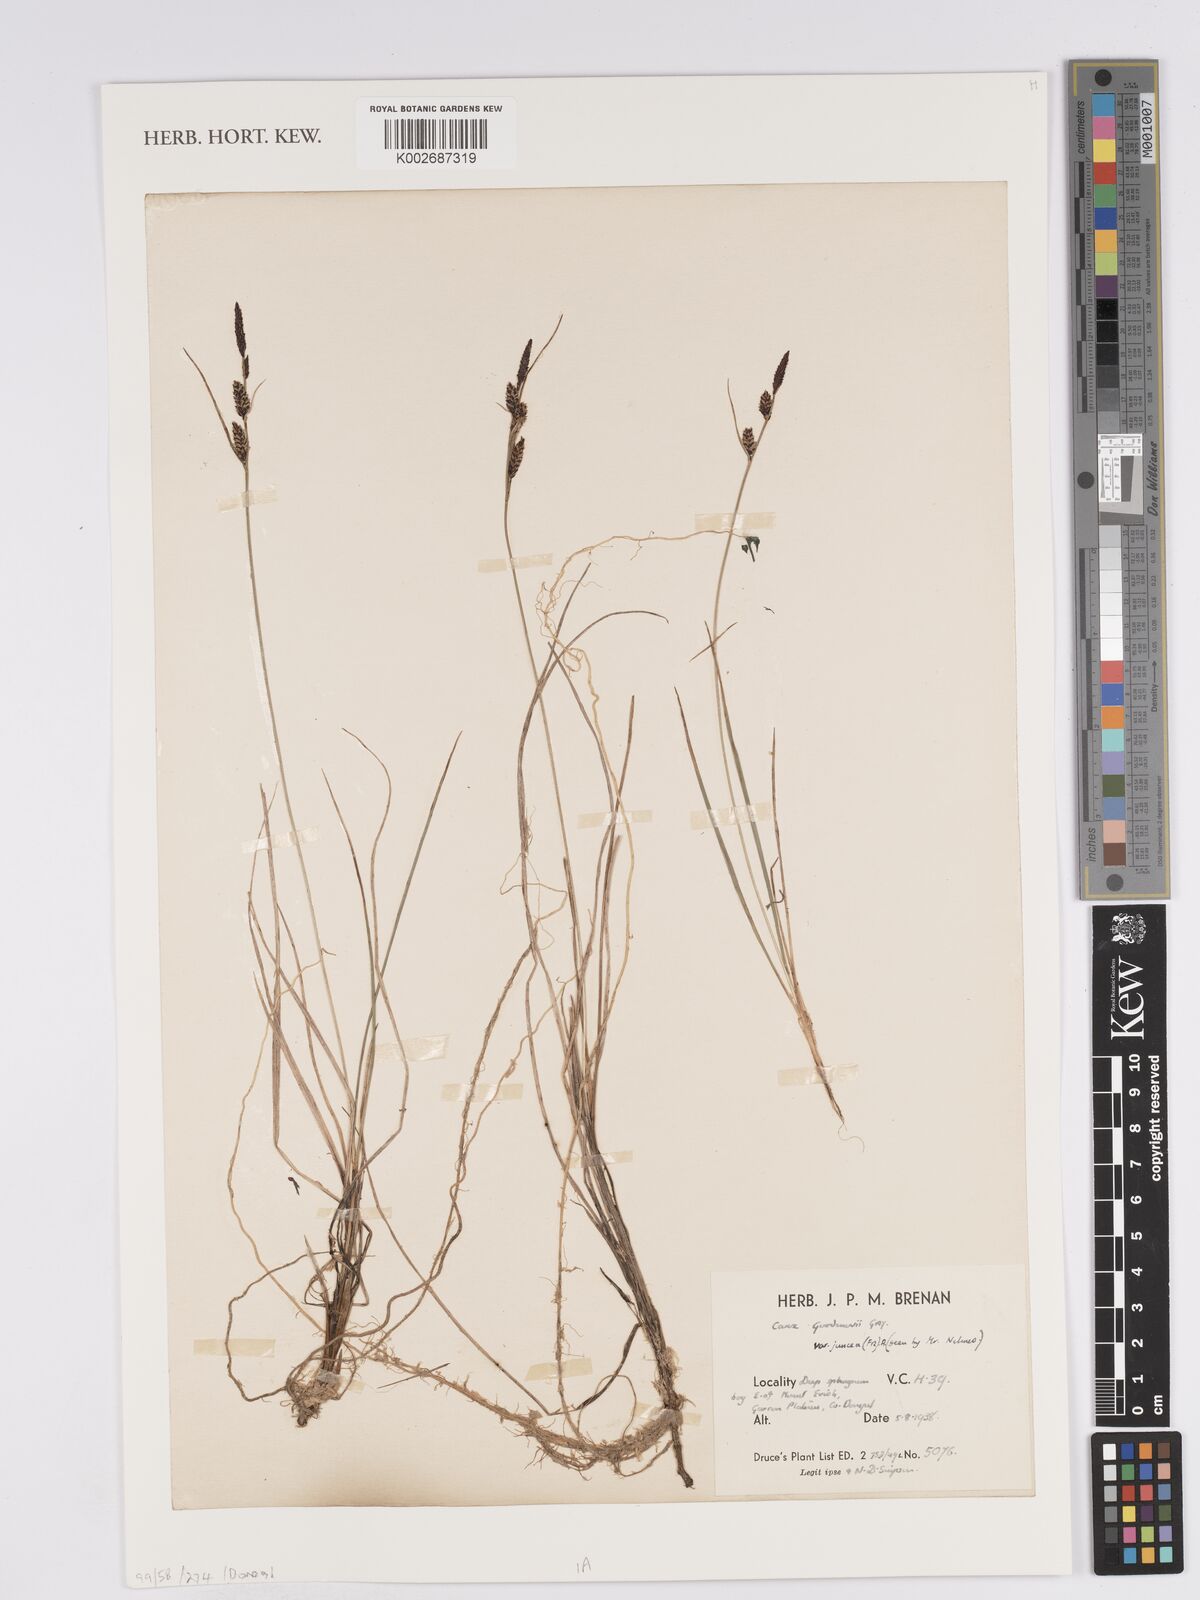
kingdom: Plantae
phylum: Tracheophyta
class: Liliopsida
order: Poales
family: Cyperaceae
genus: Carex
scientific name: Carex nigra
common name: Common sedge
